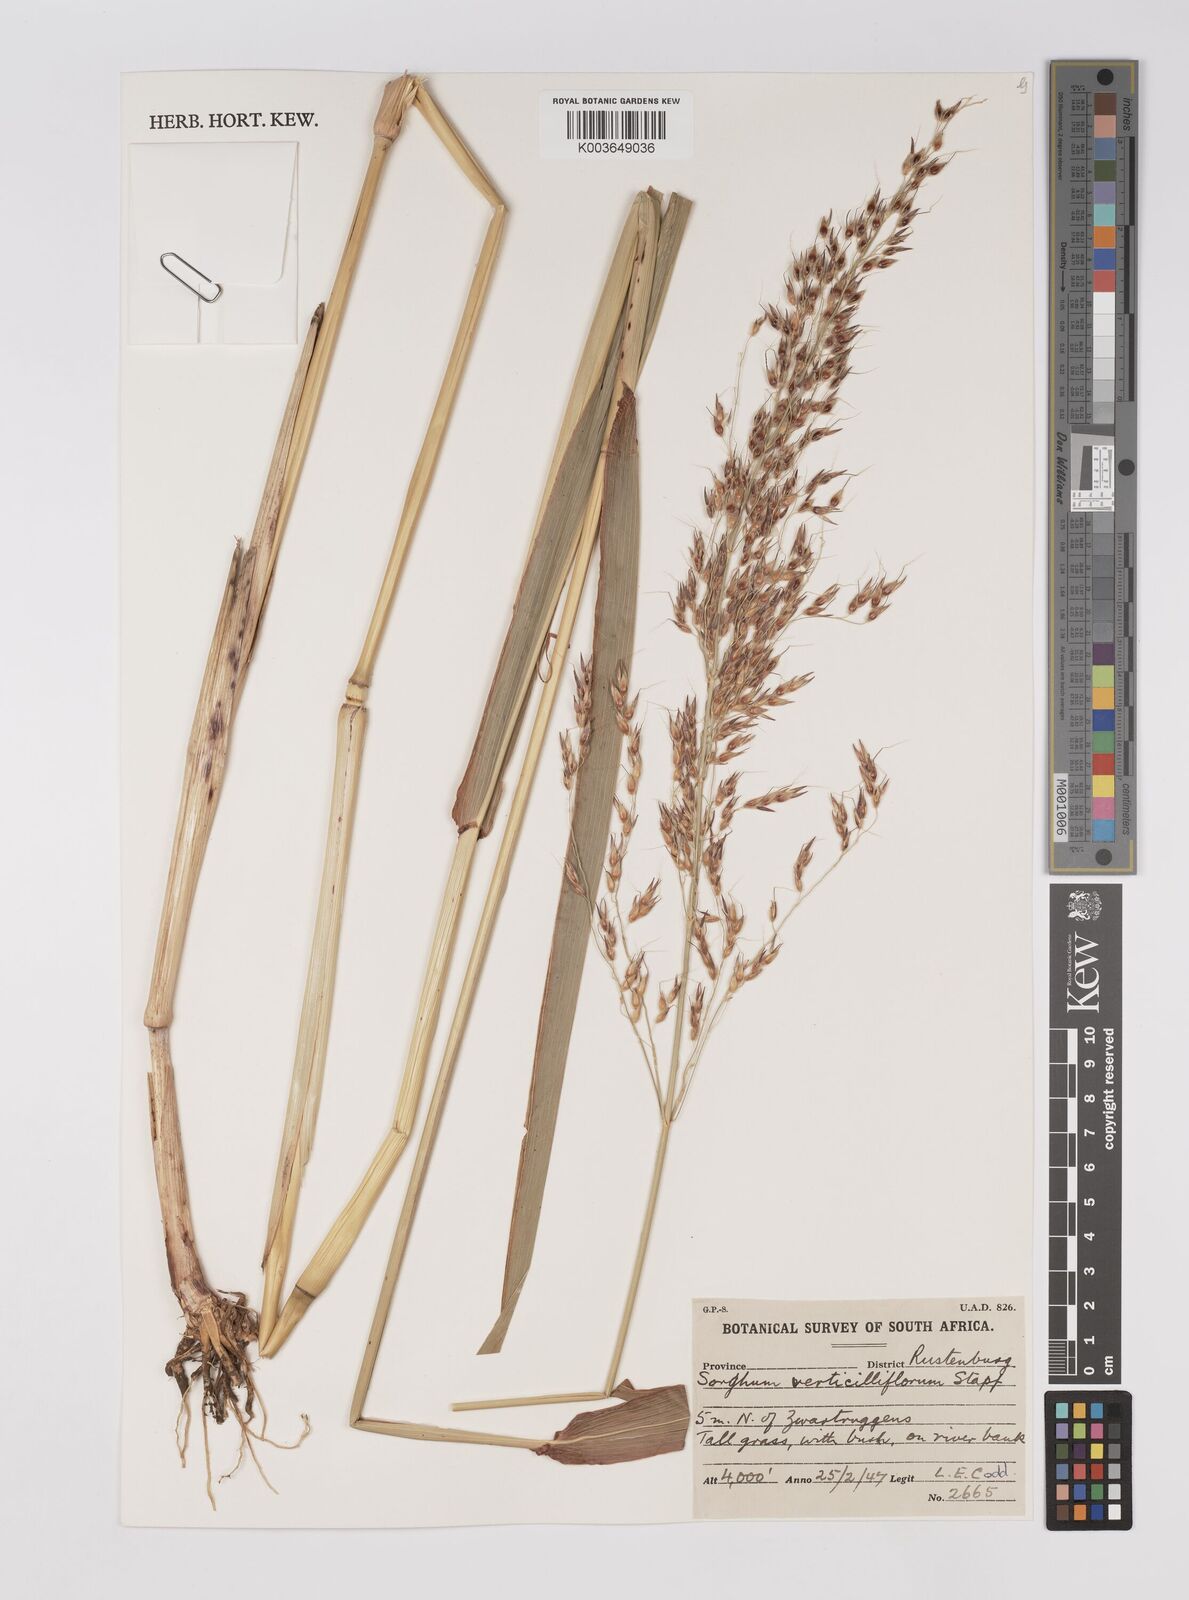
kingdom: Plantae
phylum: Tracheophyta
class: Liliopsida
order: Poales
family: Poaceae
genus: Sorghum
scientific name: Sorghum arundinaceum
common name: Sorghum
